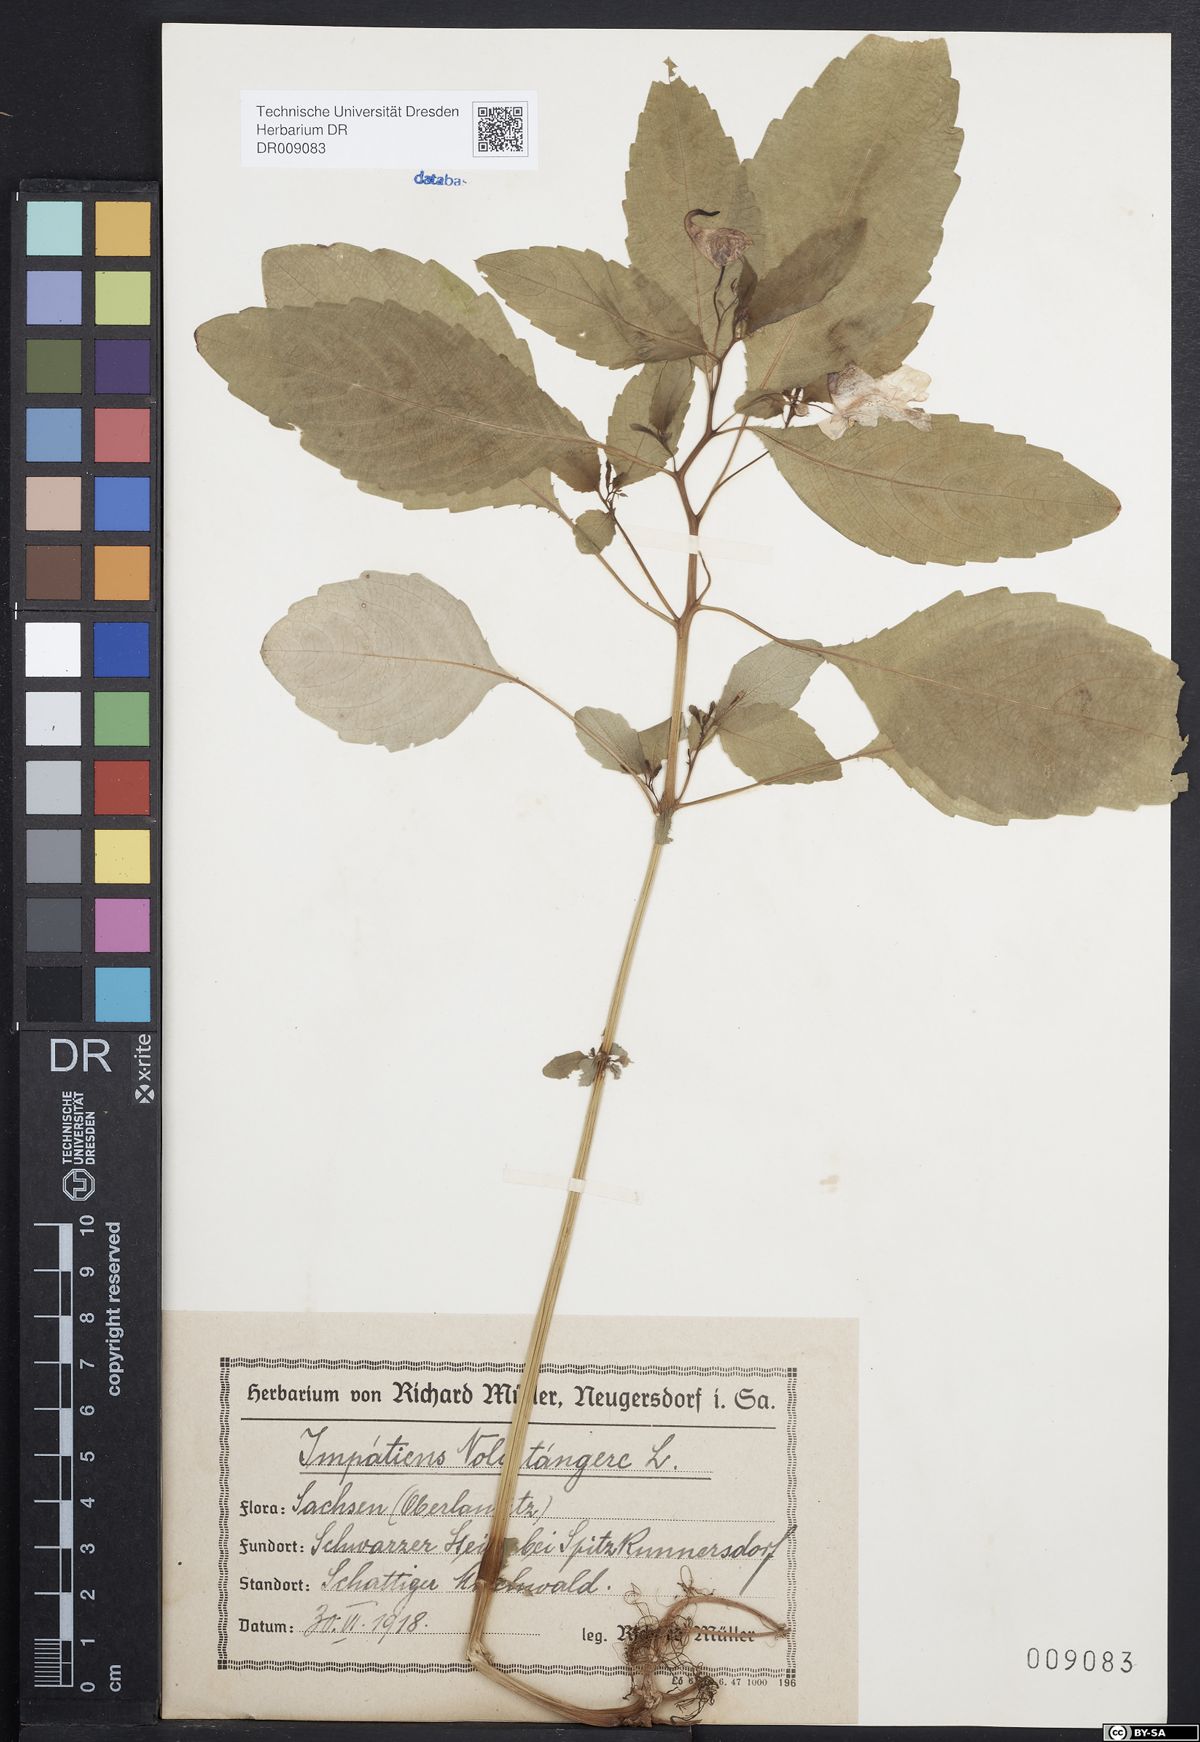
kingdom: Plantae
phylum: Tracheophyta
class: Magnoliopsida
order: Ericales
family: Balsaminaceae
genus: Impatiens
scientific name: Impatiens noli-tangere
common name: Touch-me-not balsam
